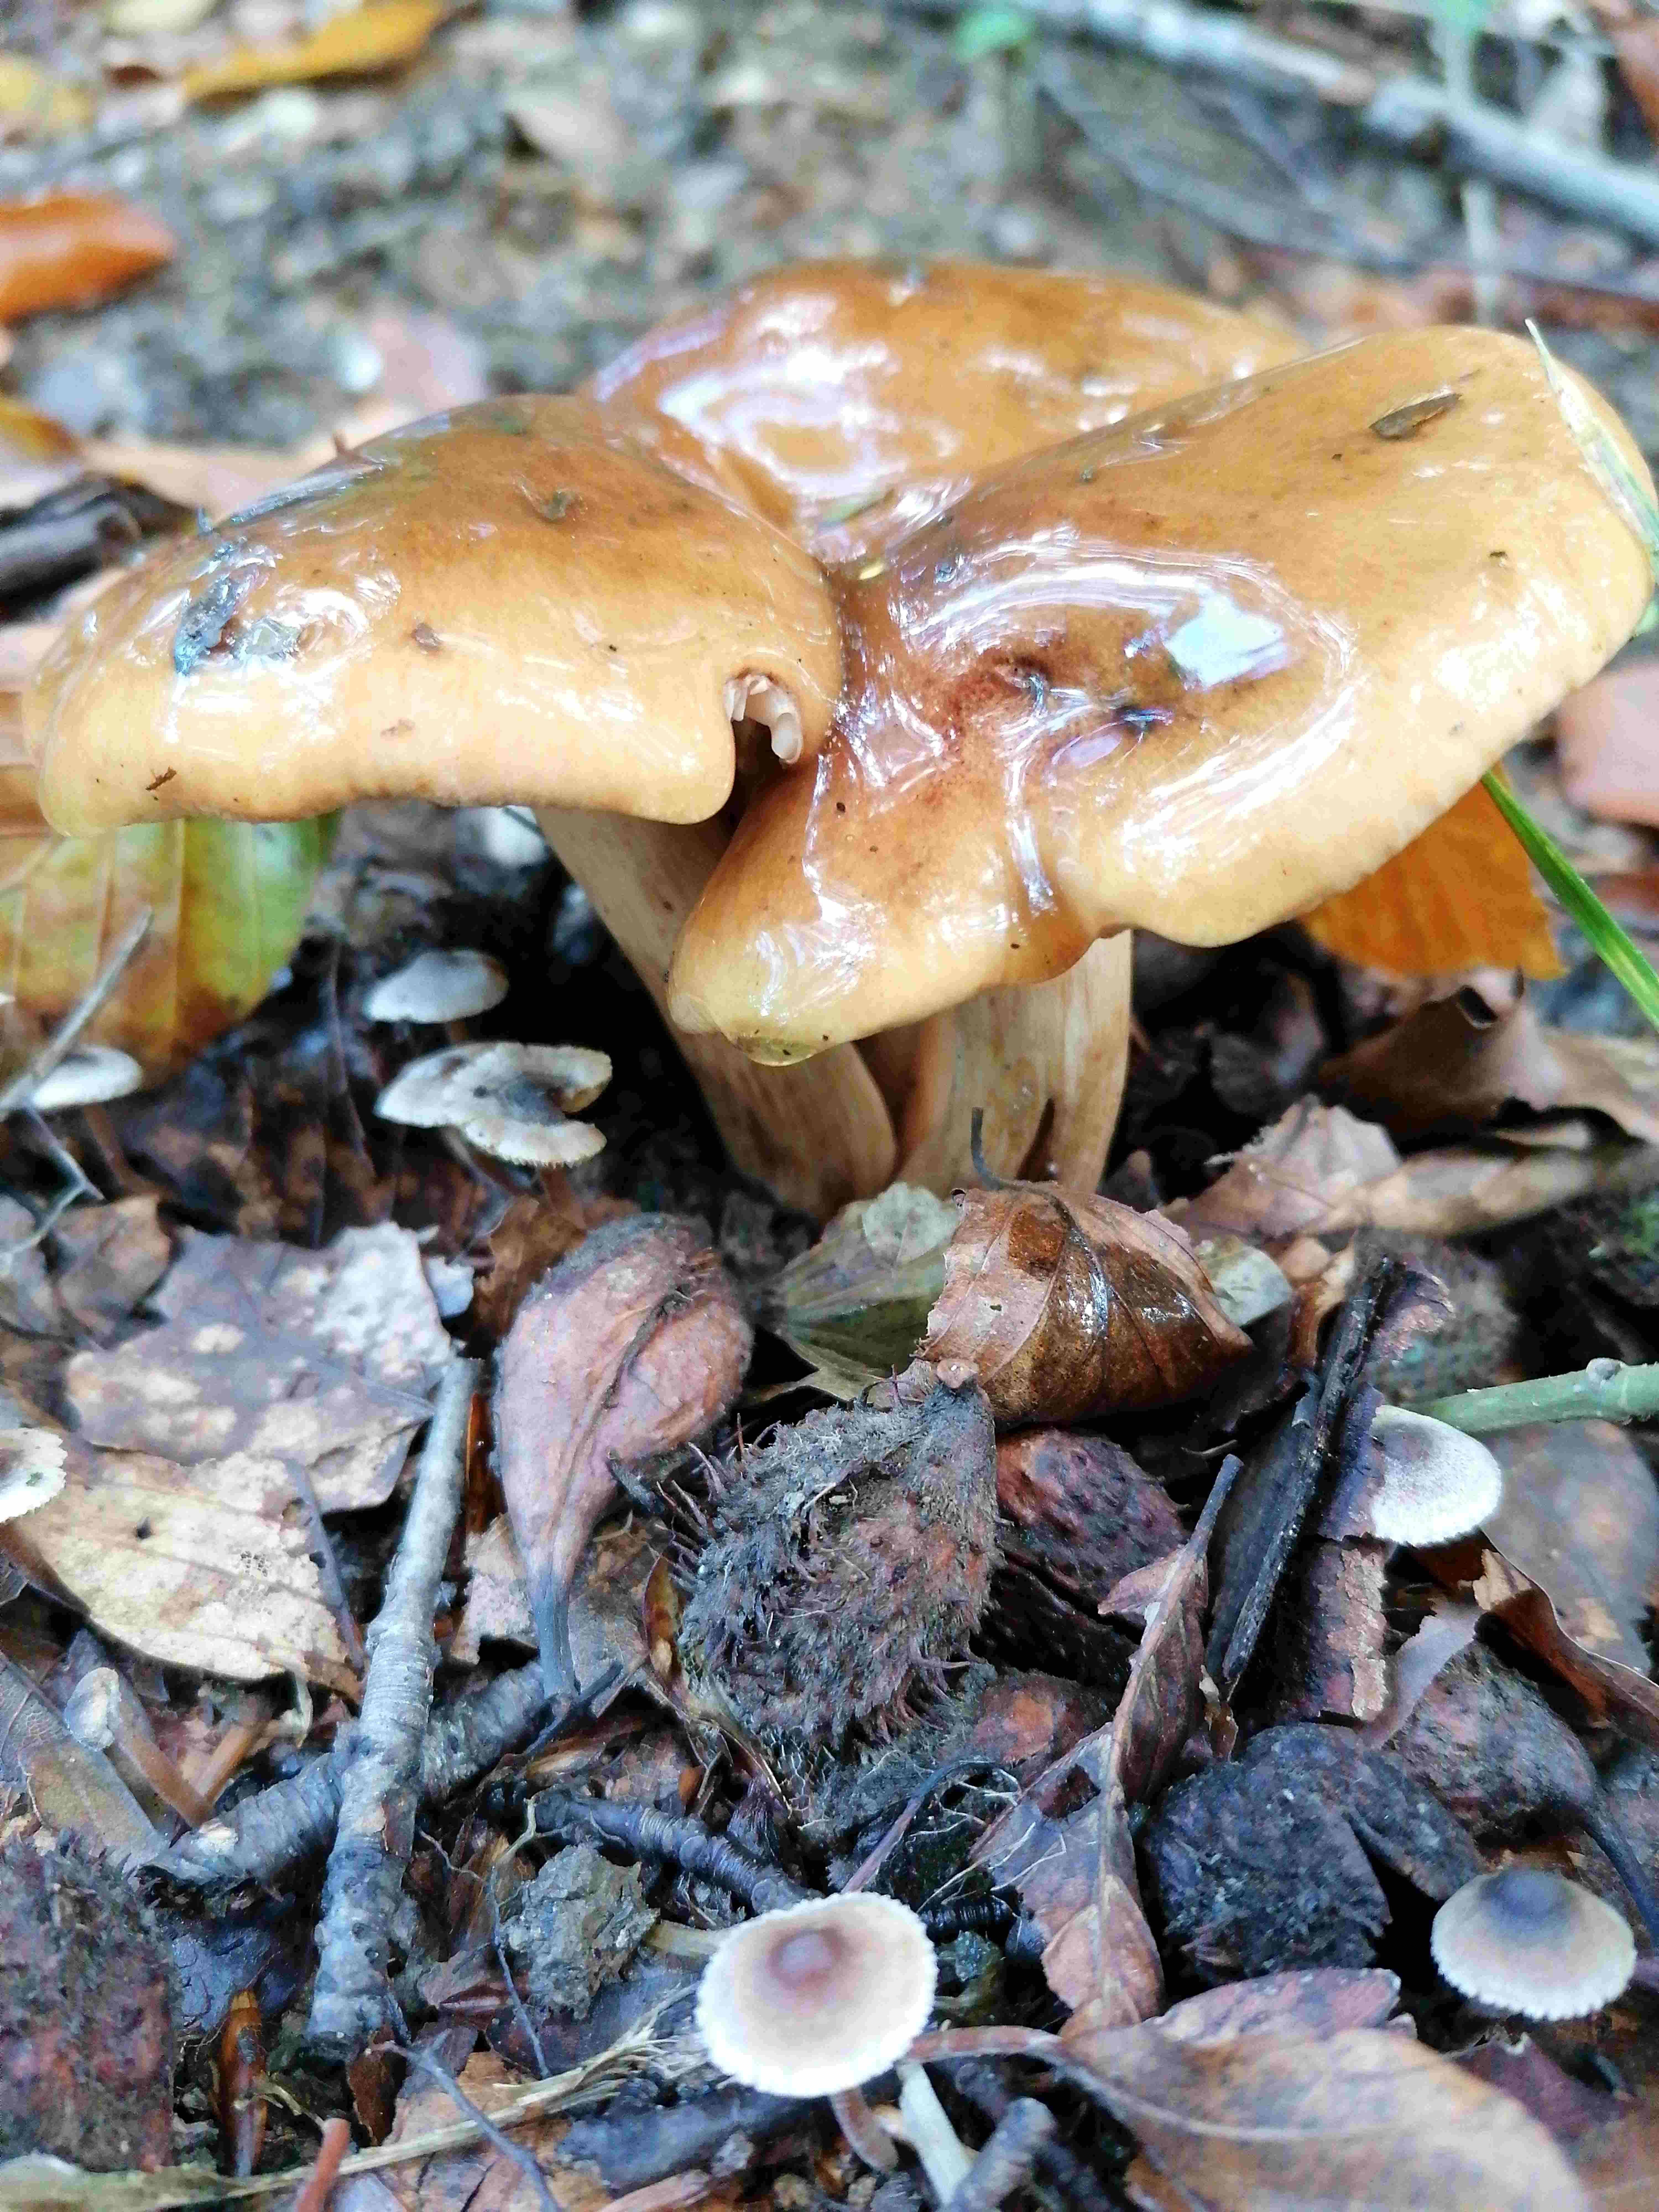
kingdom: Fungi
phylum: Basidiomycota
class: Agaricomycetes
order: Agaricales
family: Tricholomataceae
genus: Tricholoma
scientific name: Tricholoma ustale
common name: sveden ridderhat
